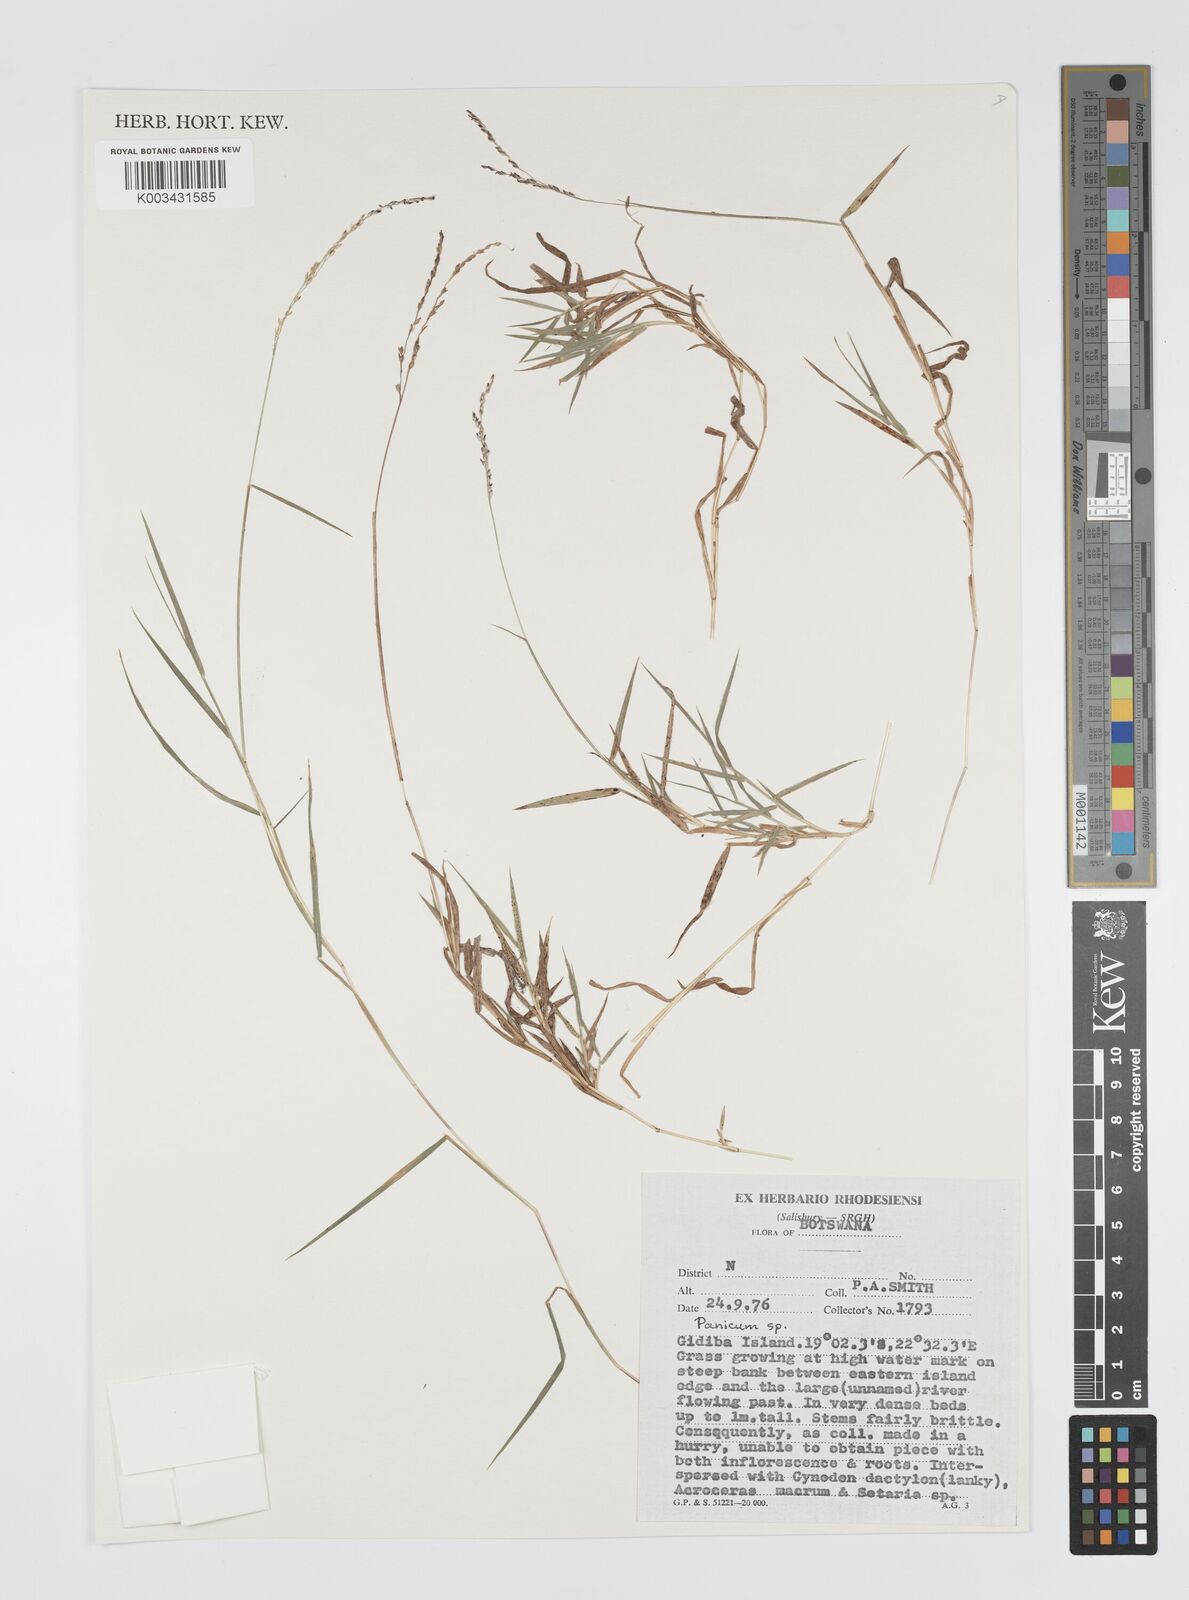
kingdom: Plantae
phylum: Tracheophyta
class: Liliopsida
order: Poales
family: Poaceae
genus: Digitaria
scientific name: Digitaria abyssinica
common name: African couchgrass
